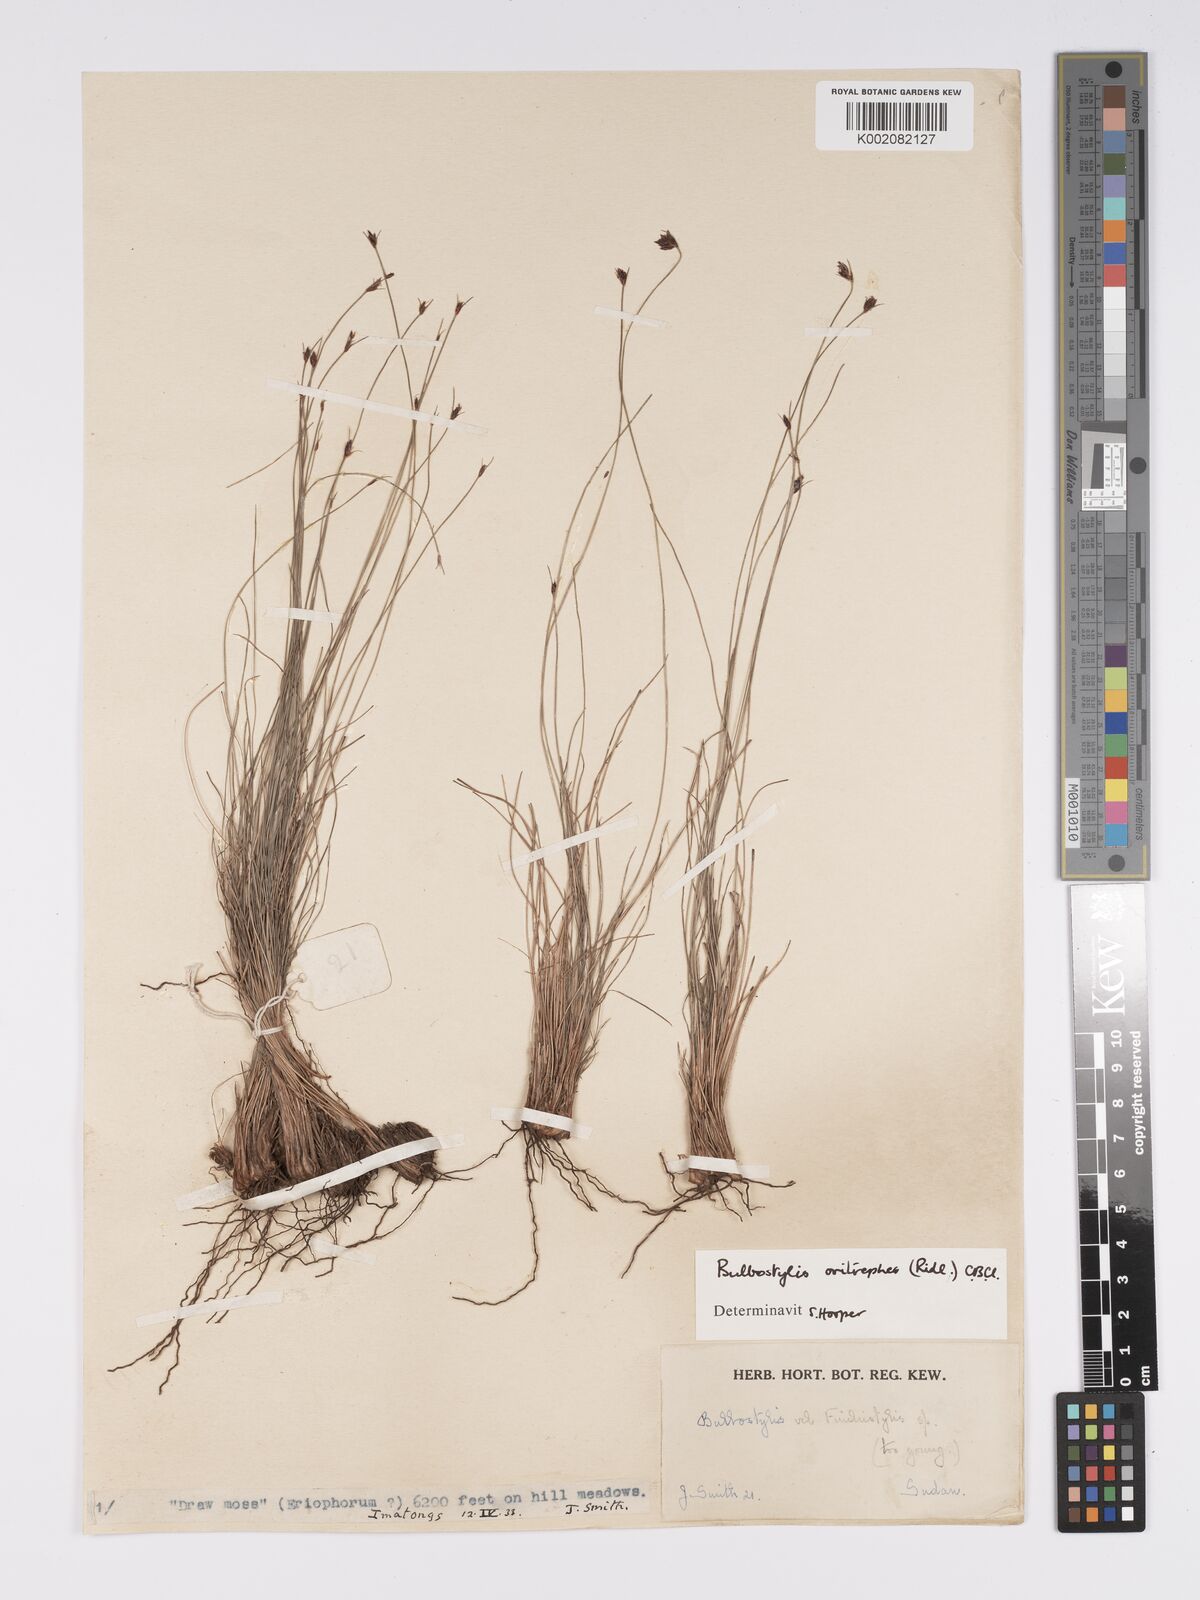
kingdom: Plantae
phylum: Tracheophyta
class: Liliopsida
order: Poales
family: Cyperaceae
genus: Bulbostylis
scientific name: Bulbostylis oritrephes
